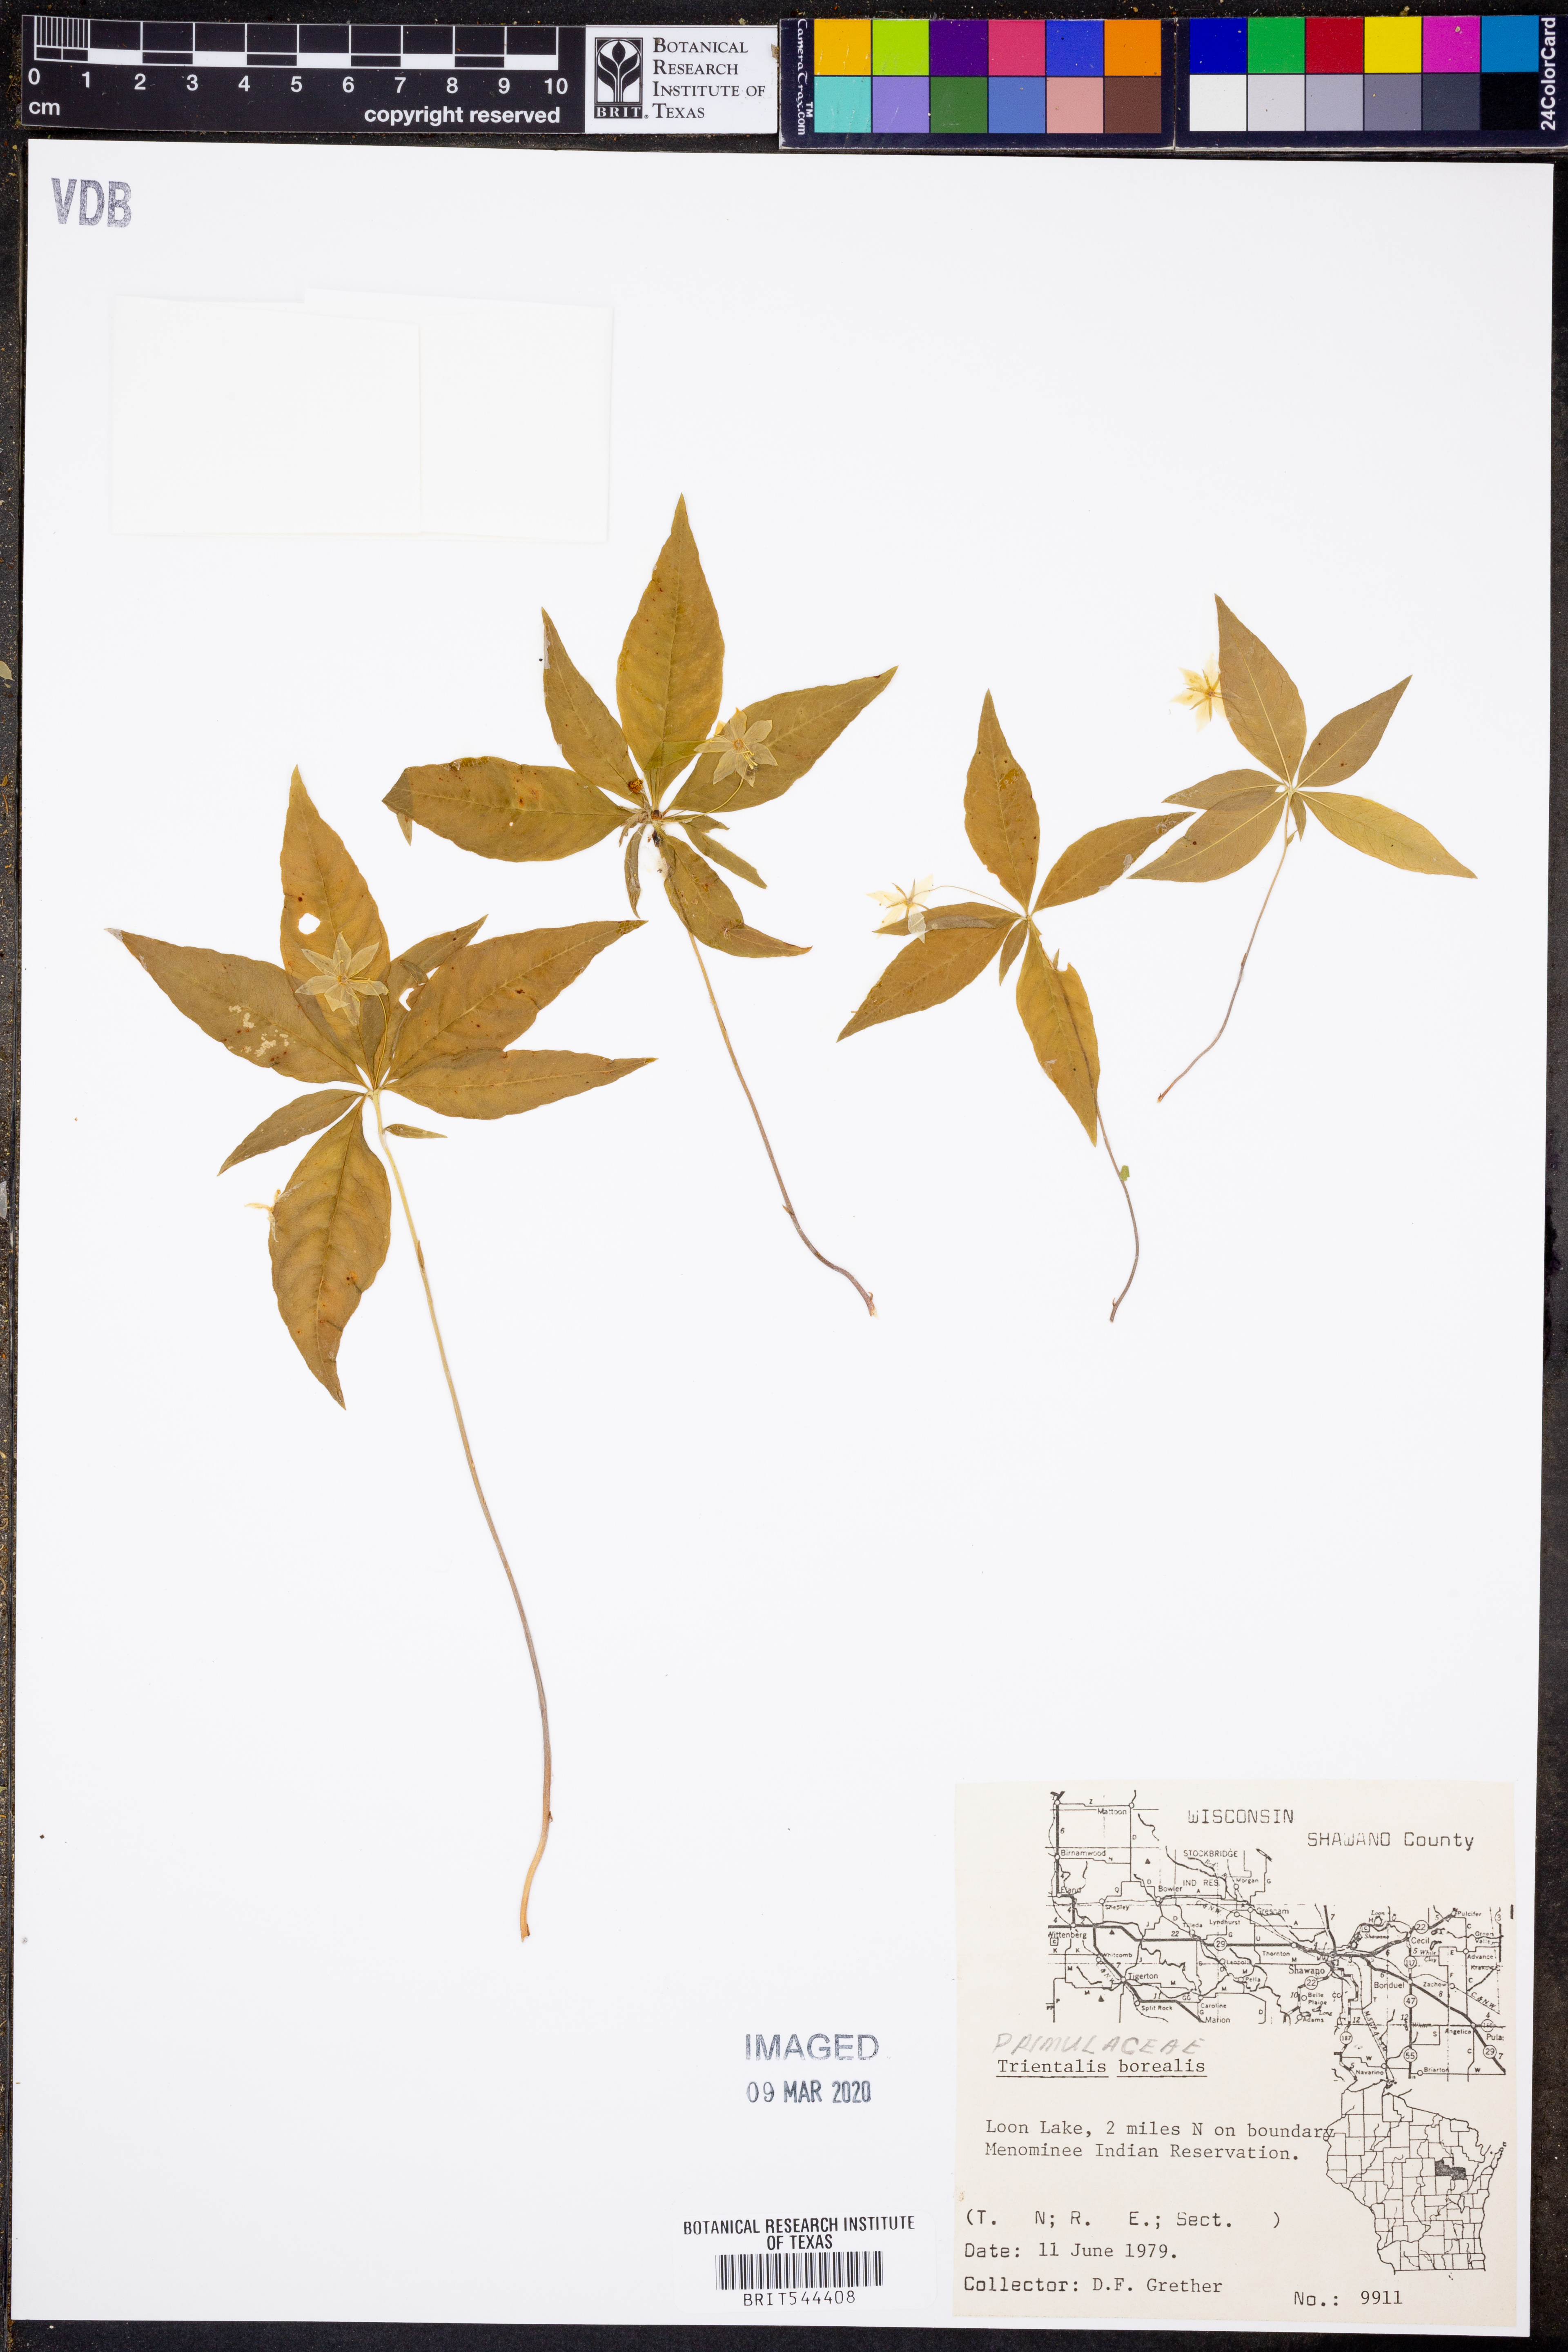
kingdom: Plantae
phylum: Tracheophyta
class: Magnoliopsida
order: Ericales
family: Primulaceae
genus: Lysimachia
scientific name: Lysimachia borealis
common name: American starflower
